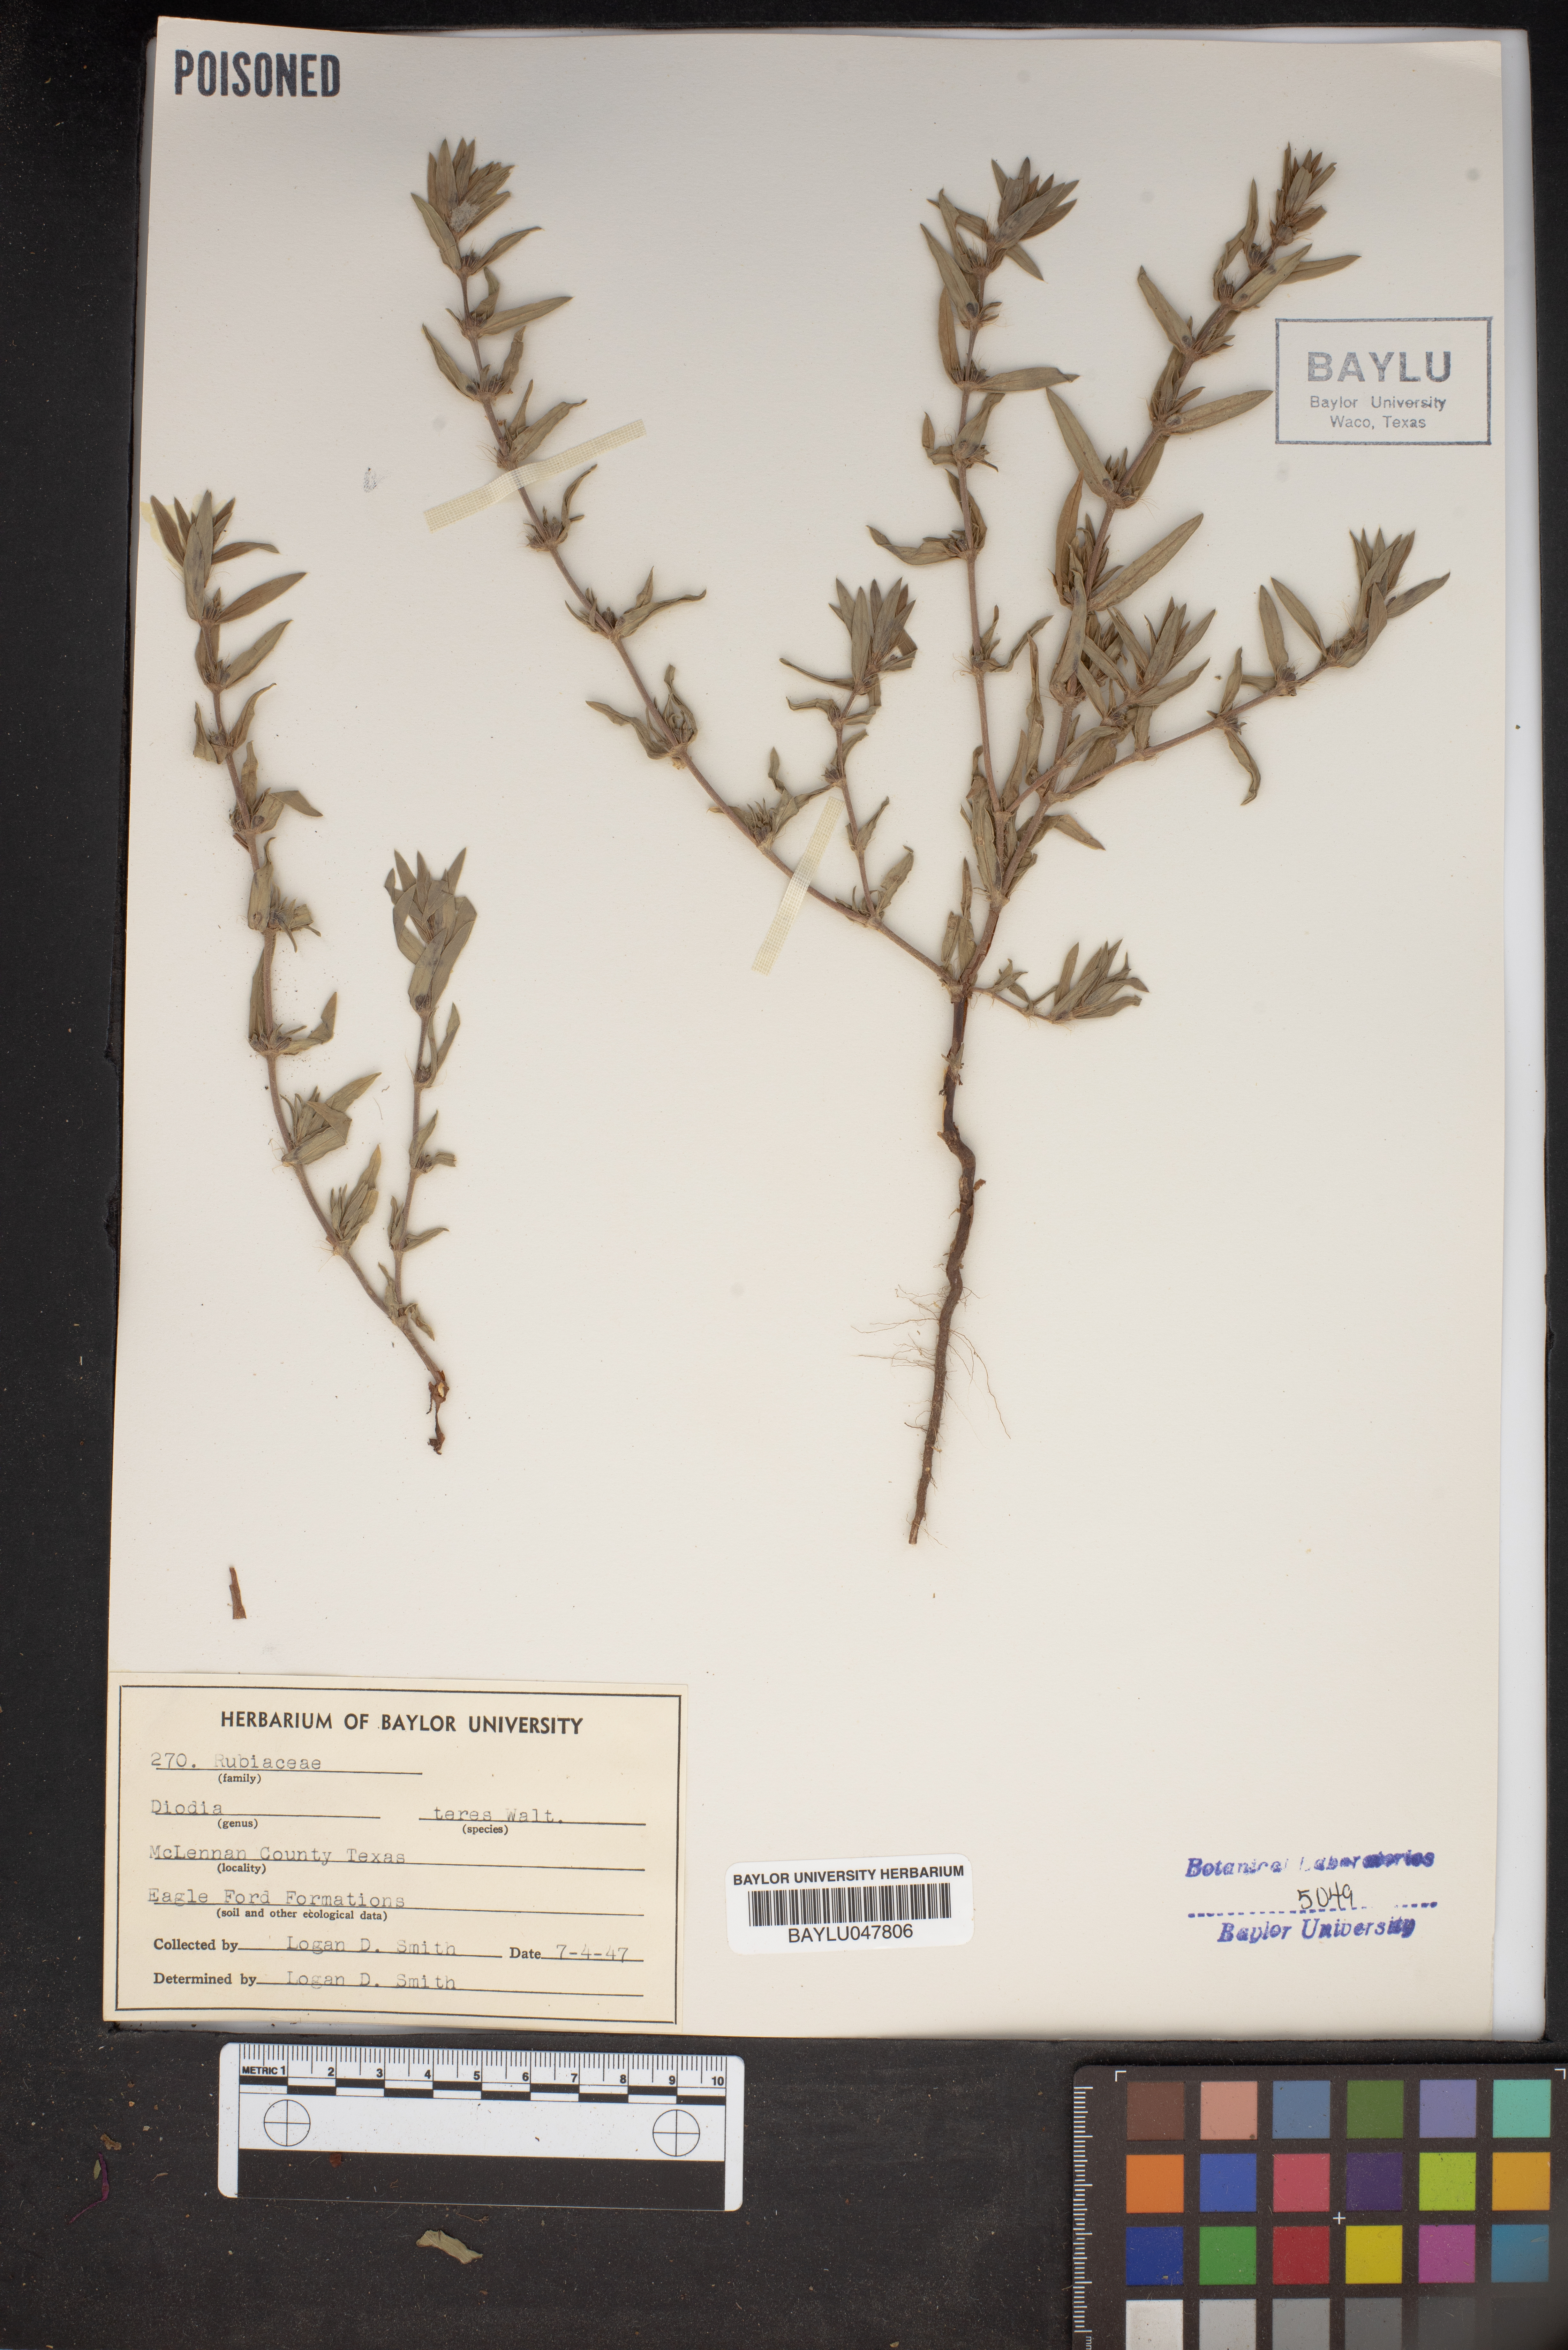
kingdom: Plantae
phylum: Tracheophyta
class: Magnoliopsida
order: Gentianales
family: Rubiaceae
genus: Hexasepalum
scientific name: Hexasepalum teres
